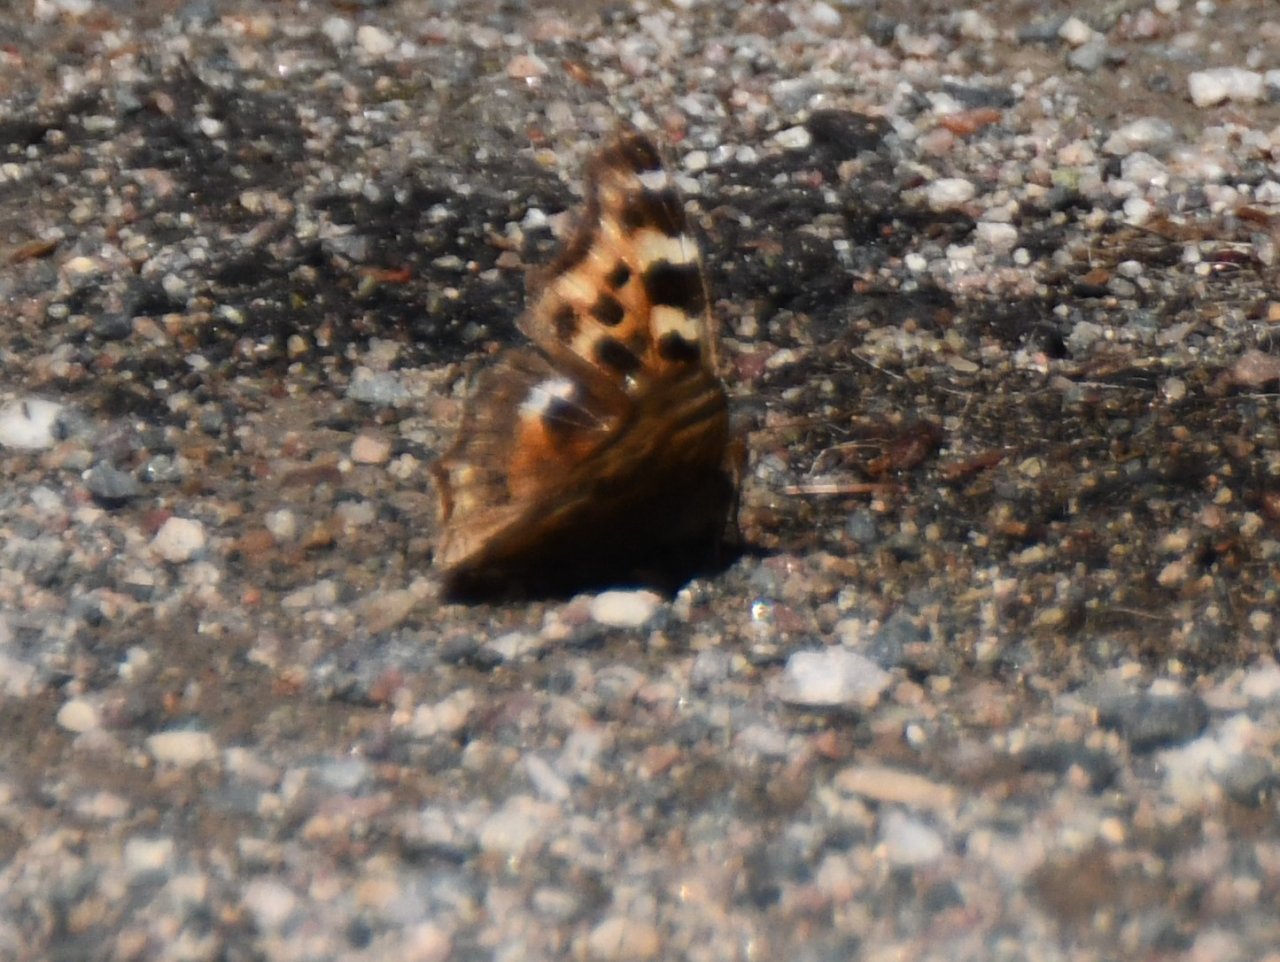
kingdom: Animalia
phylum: Arthropoda
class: Insecta
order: Lepidoptera
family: Nymphalidae
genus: Polygonia
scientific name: Polygonia vaualbum
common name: Compton Tortoiseshell
